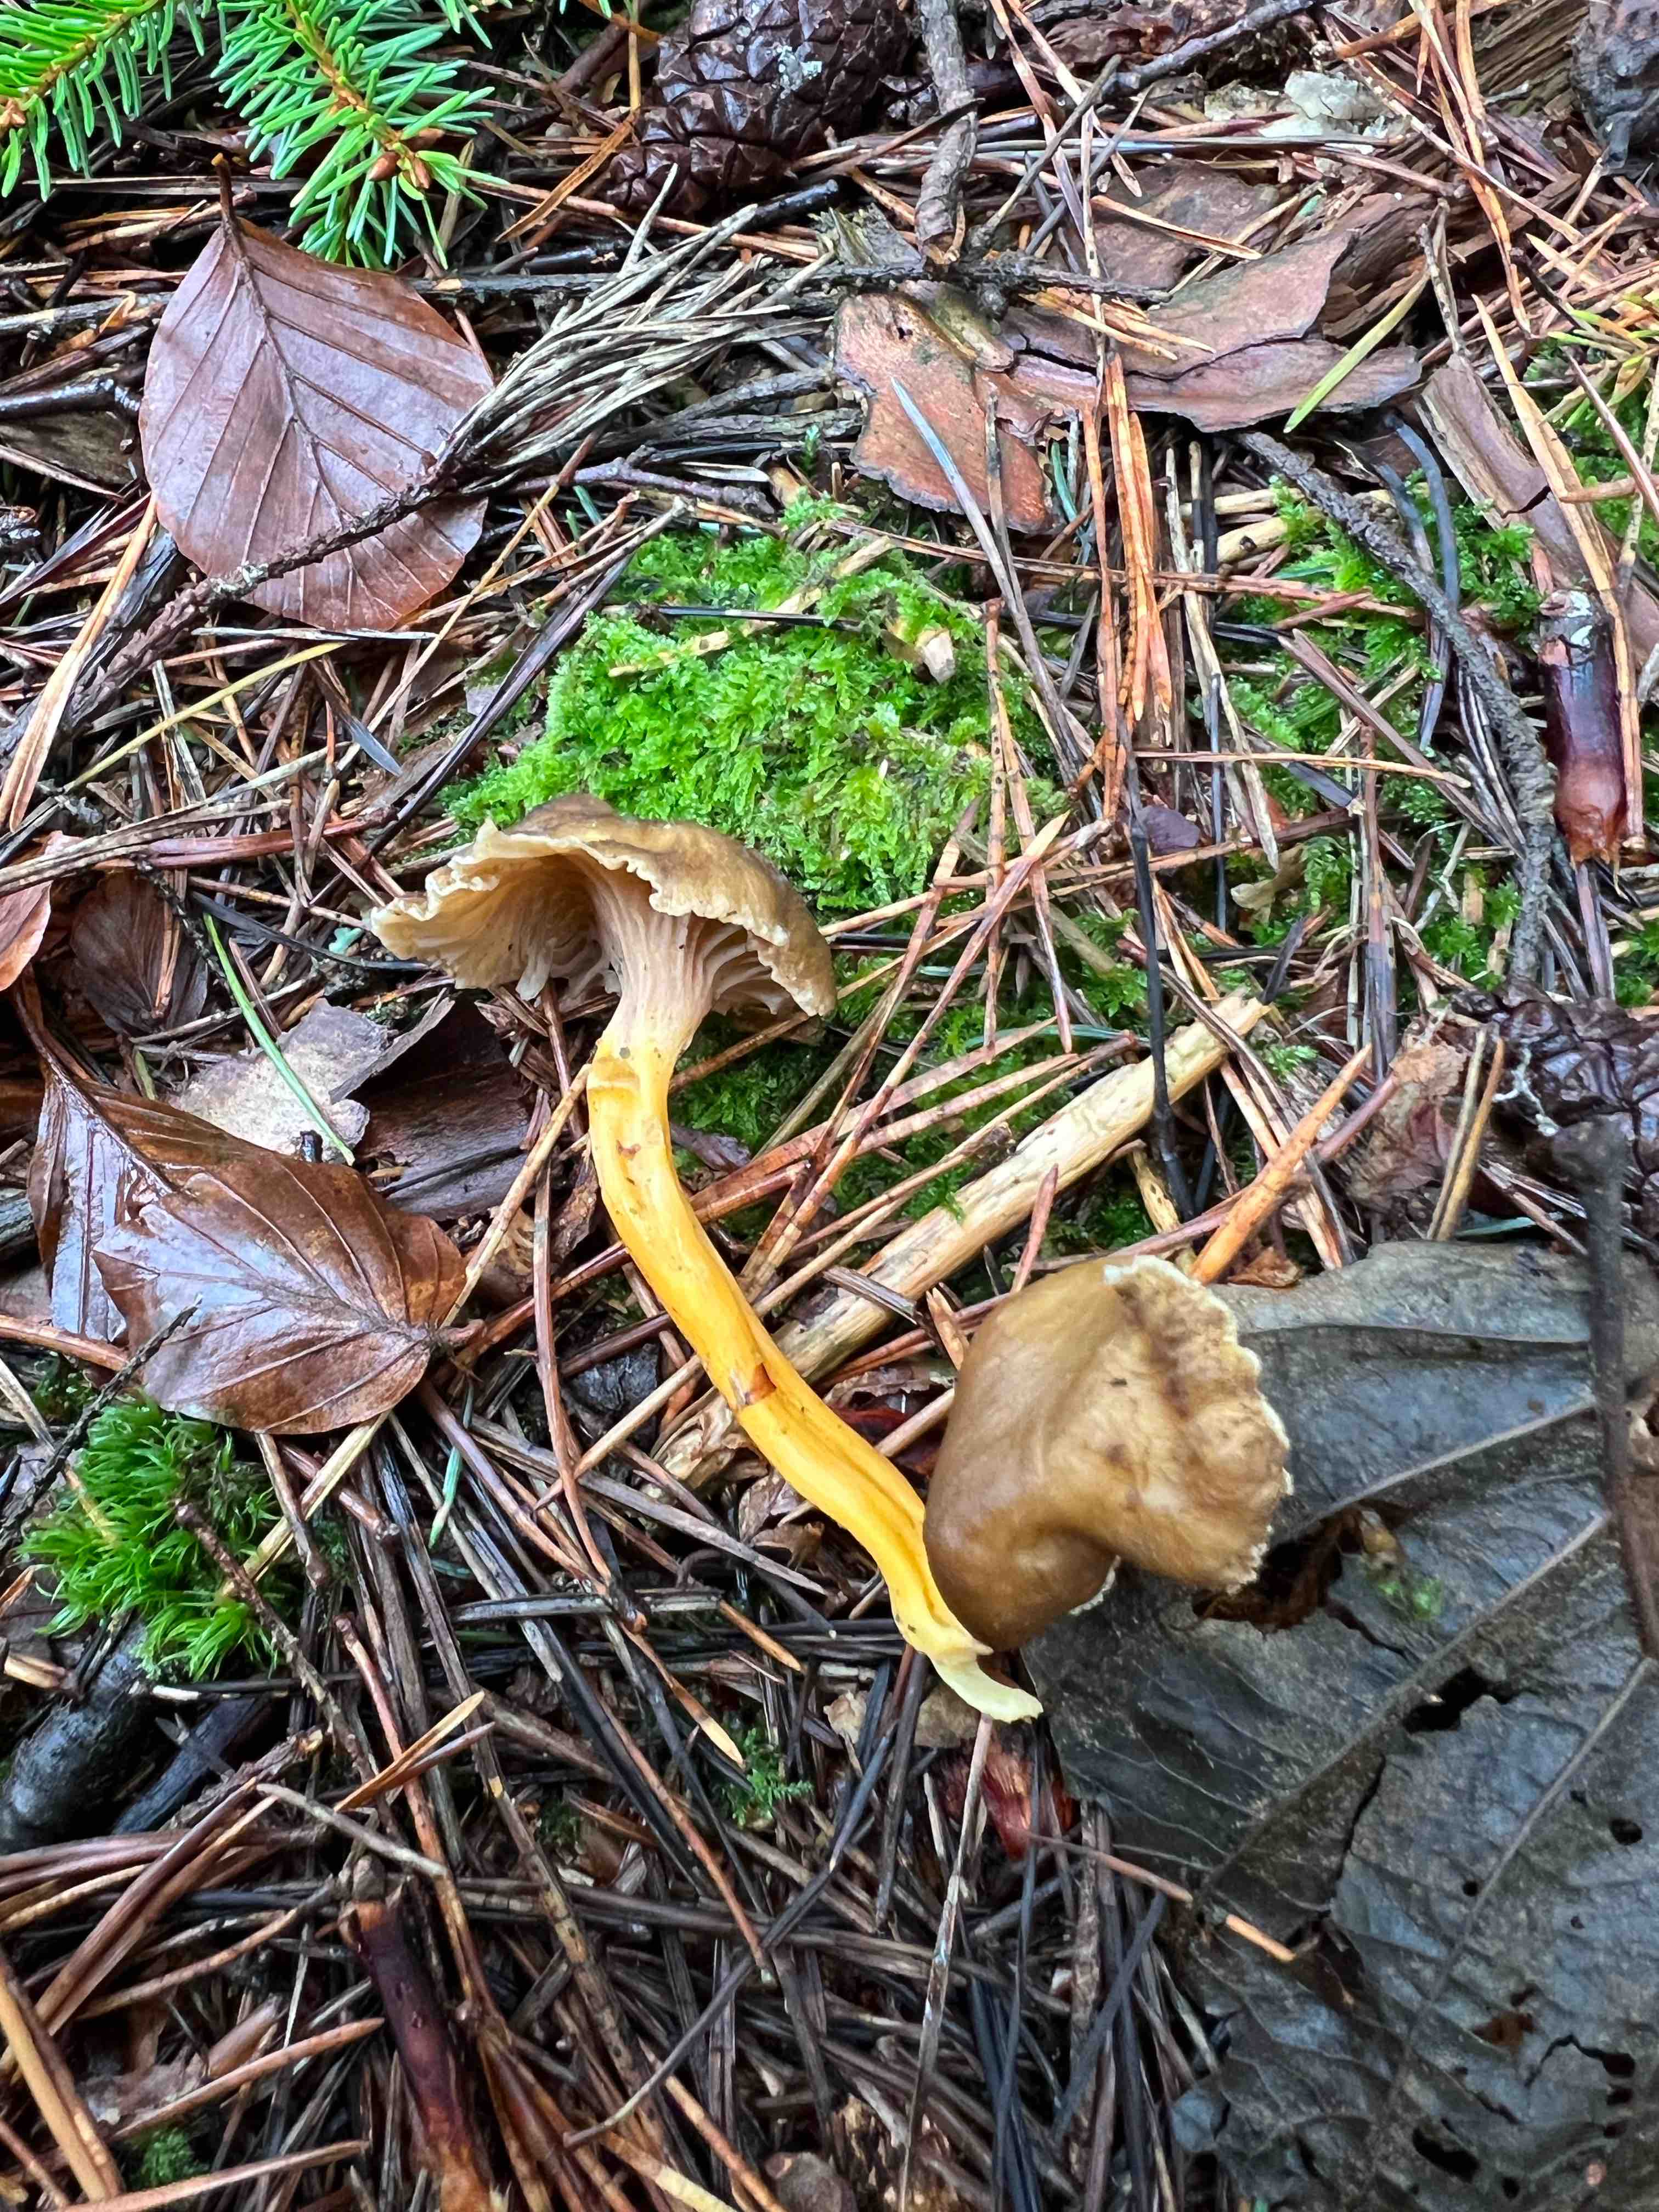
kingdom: Fungi
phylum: Basidiomycota
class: Agaricomycetes
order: Cantharellales
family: Hydnaceae
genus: Craterellus
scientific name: Craterellus tubaeformis
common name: tragt-kantarel
